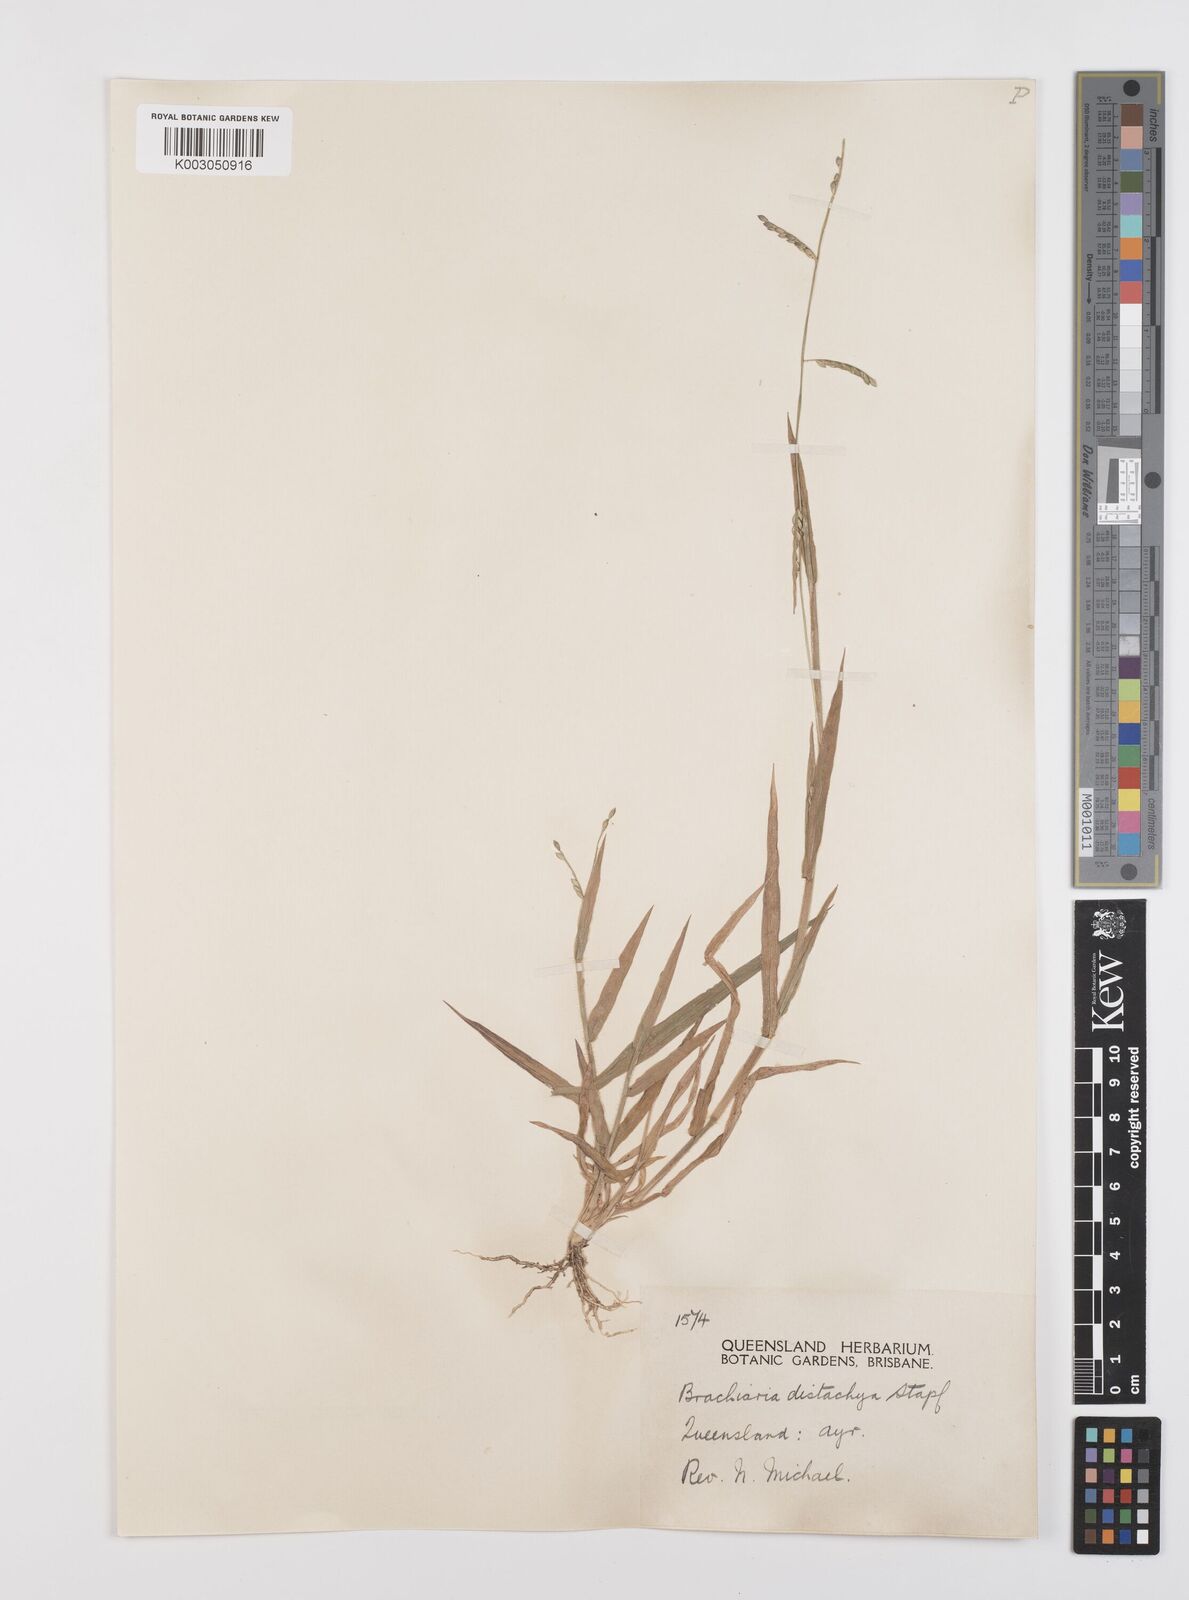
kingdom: Plantae
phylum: Tracheophyta
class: Liliopsida
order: Poales
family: Poaceae
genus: Urochloa
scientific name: Urochloa subquadripara
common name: Armgrass millet
